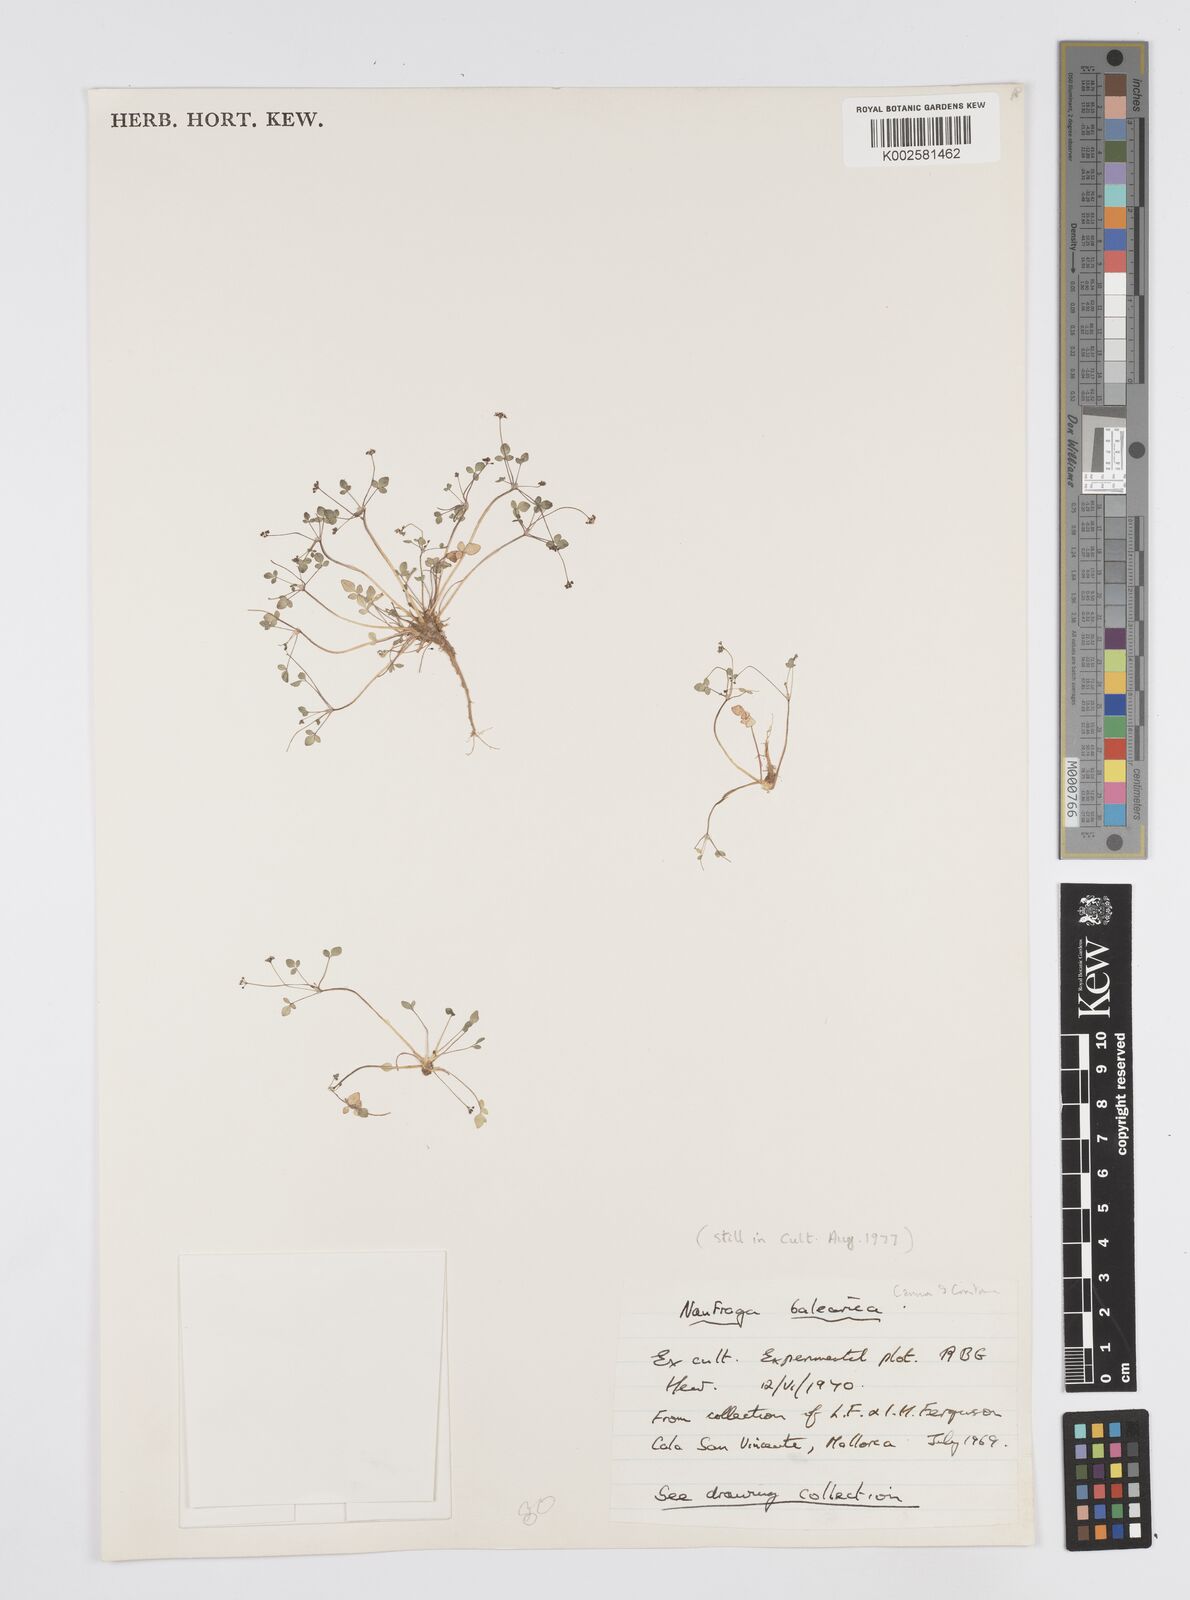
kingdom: Plantae
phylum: Tracheophyta
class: Magnoliopsida
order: Apiales
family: Apiaceae
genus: Naufraga
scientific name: Naufraga balearica
